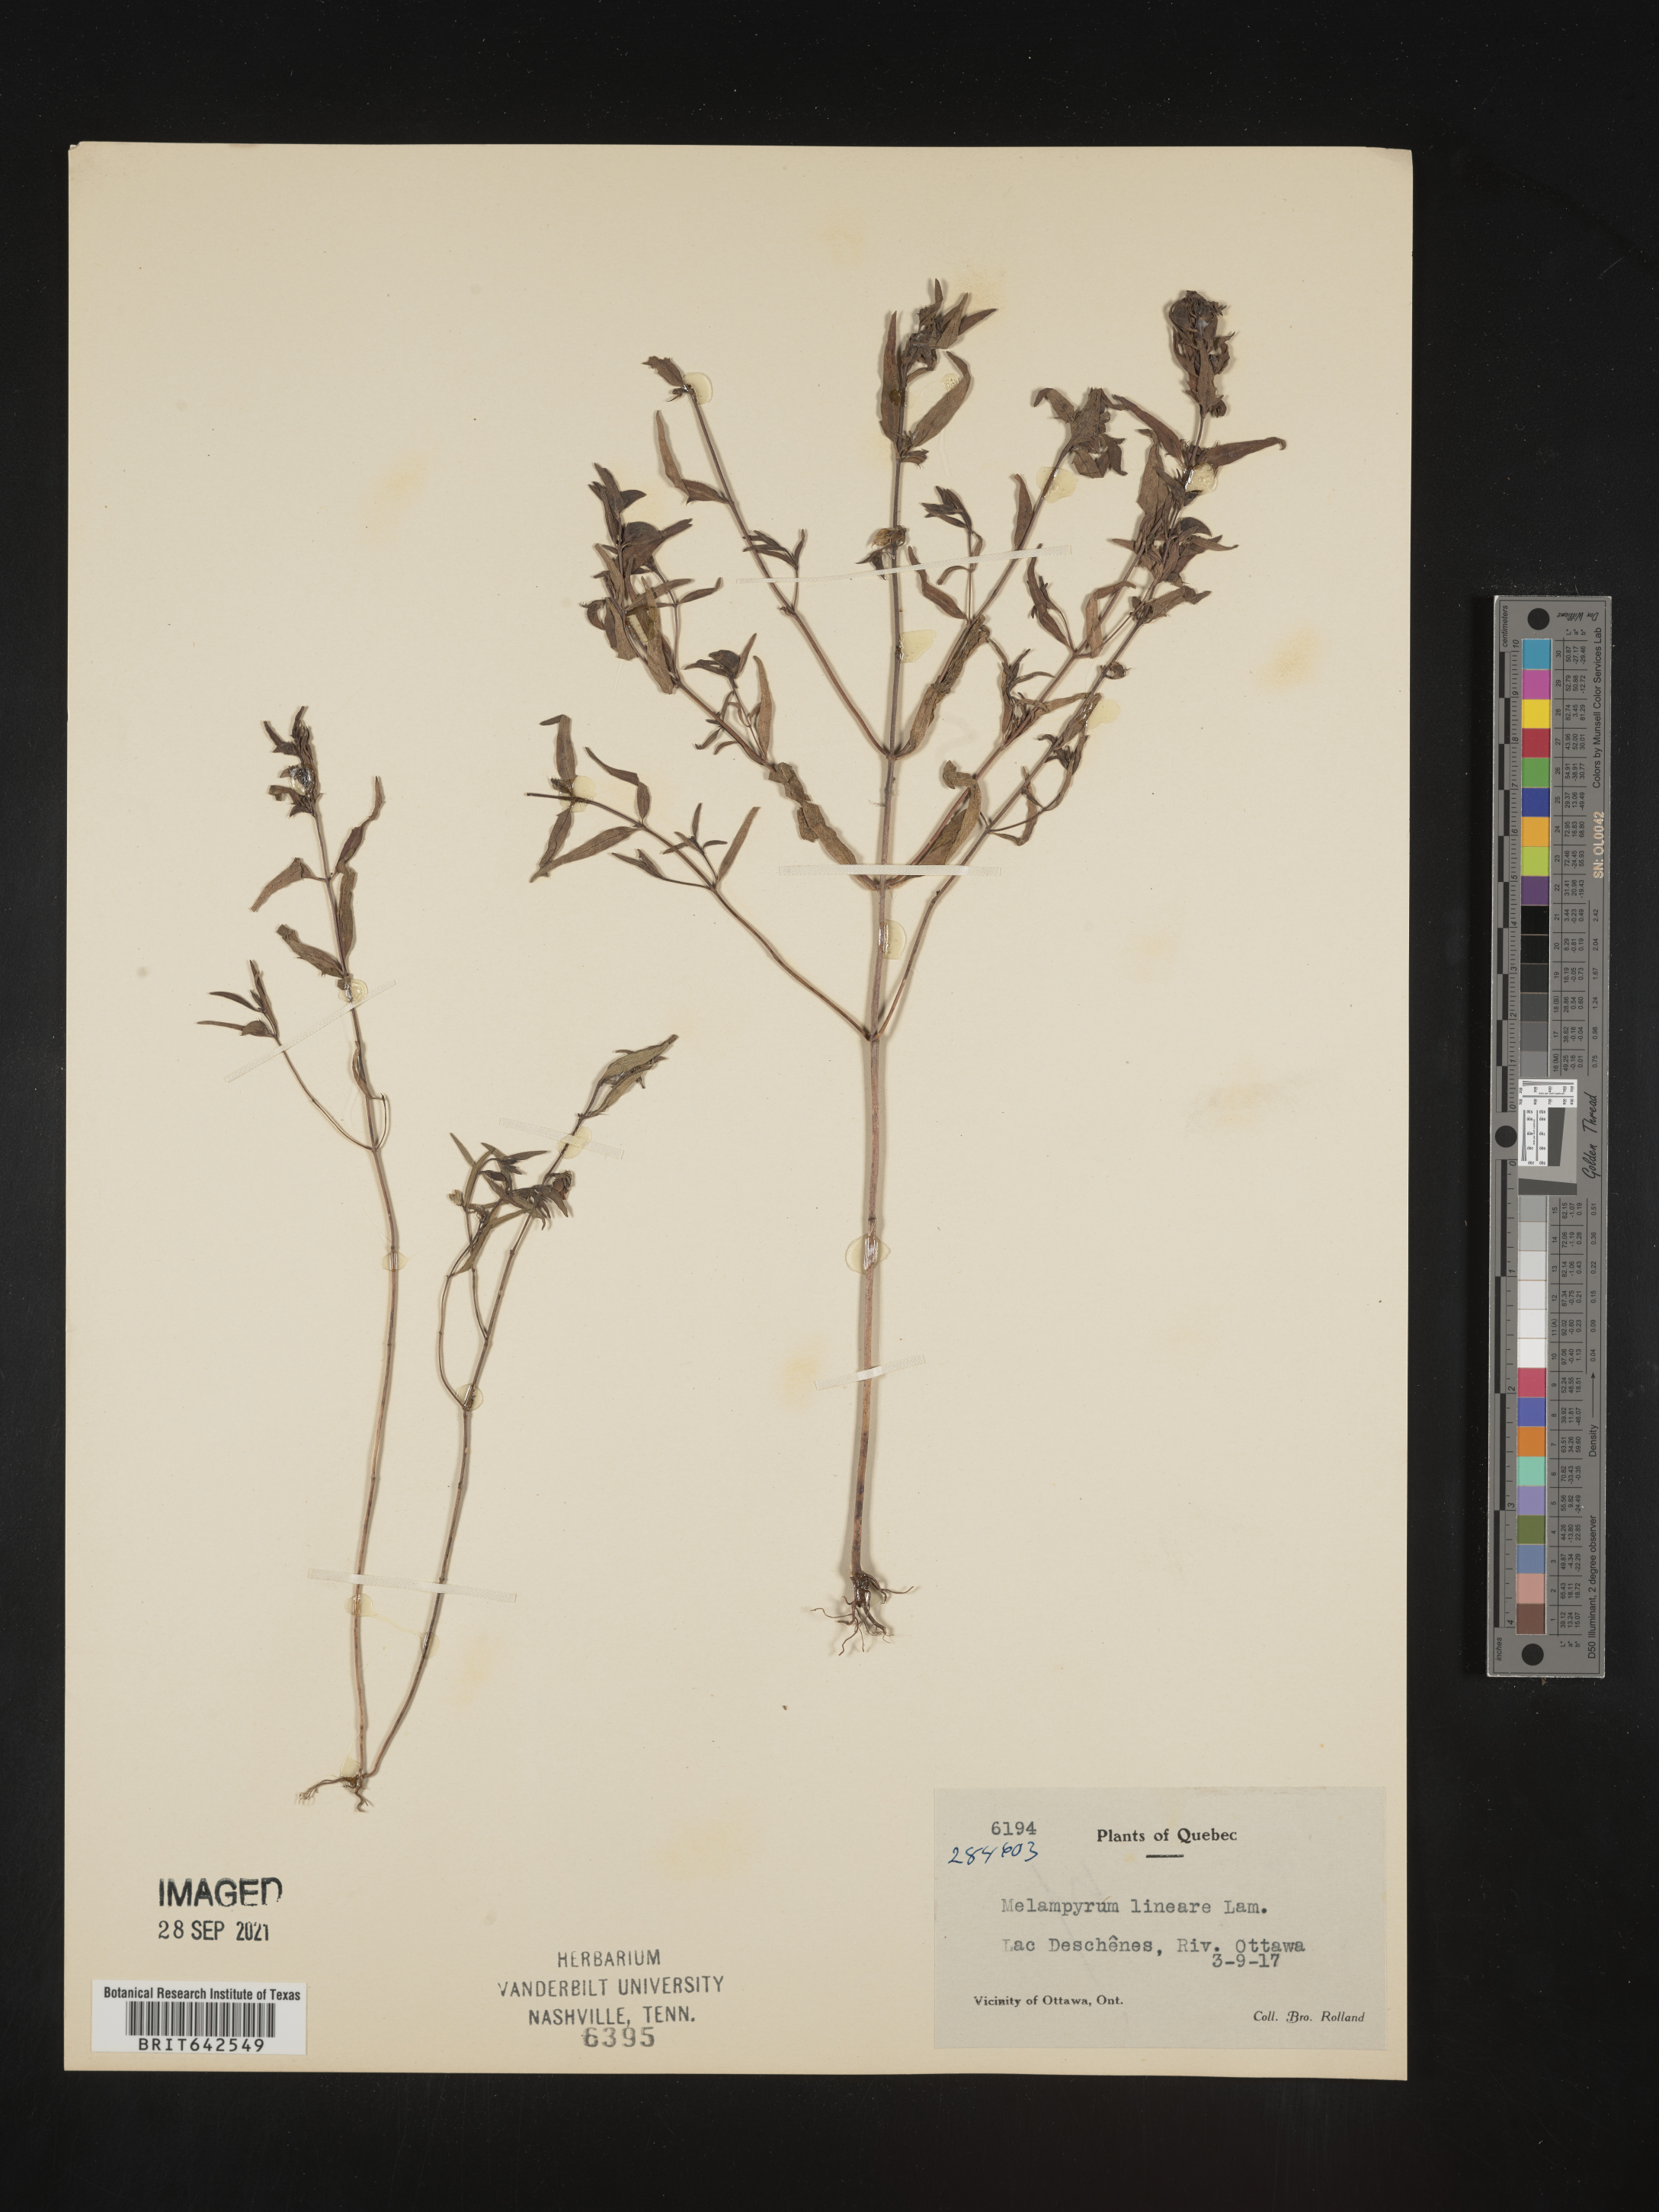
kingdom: Plantae
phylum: Tracheophyta
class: Magnoliopsida
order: Lamiales
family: Orobanchaceae
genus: Melampyrum
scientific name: Melampyrum
